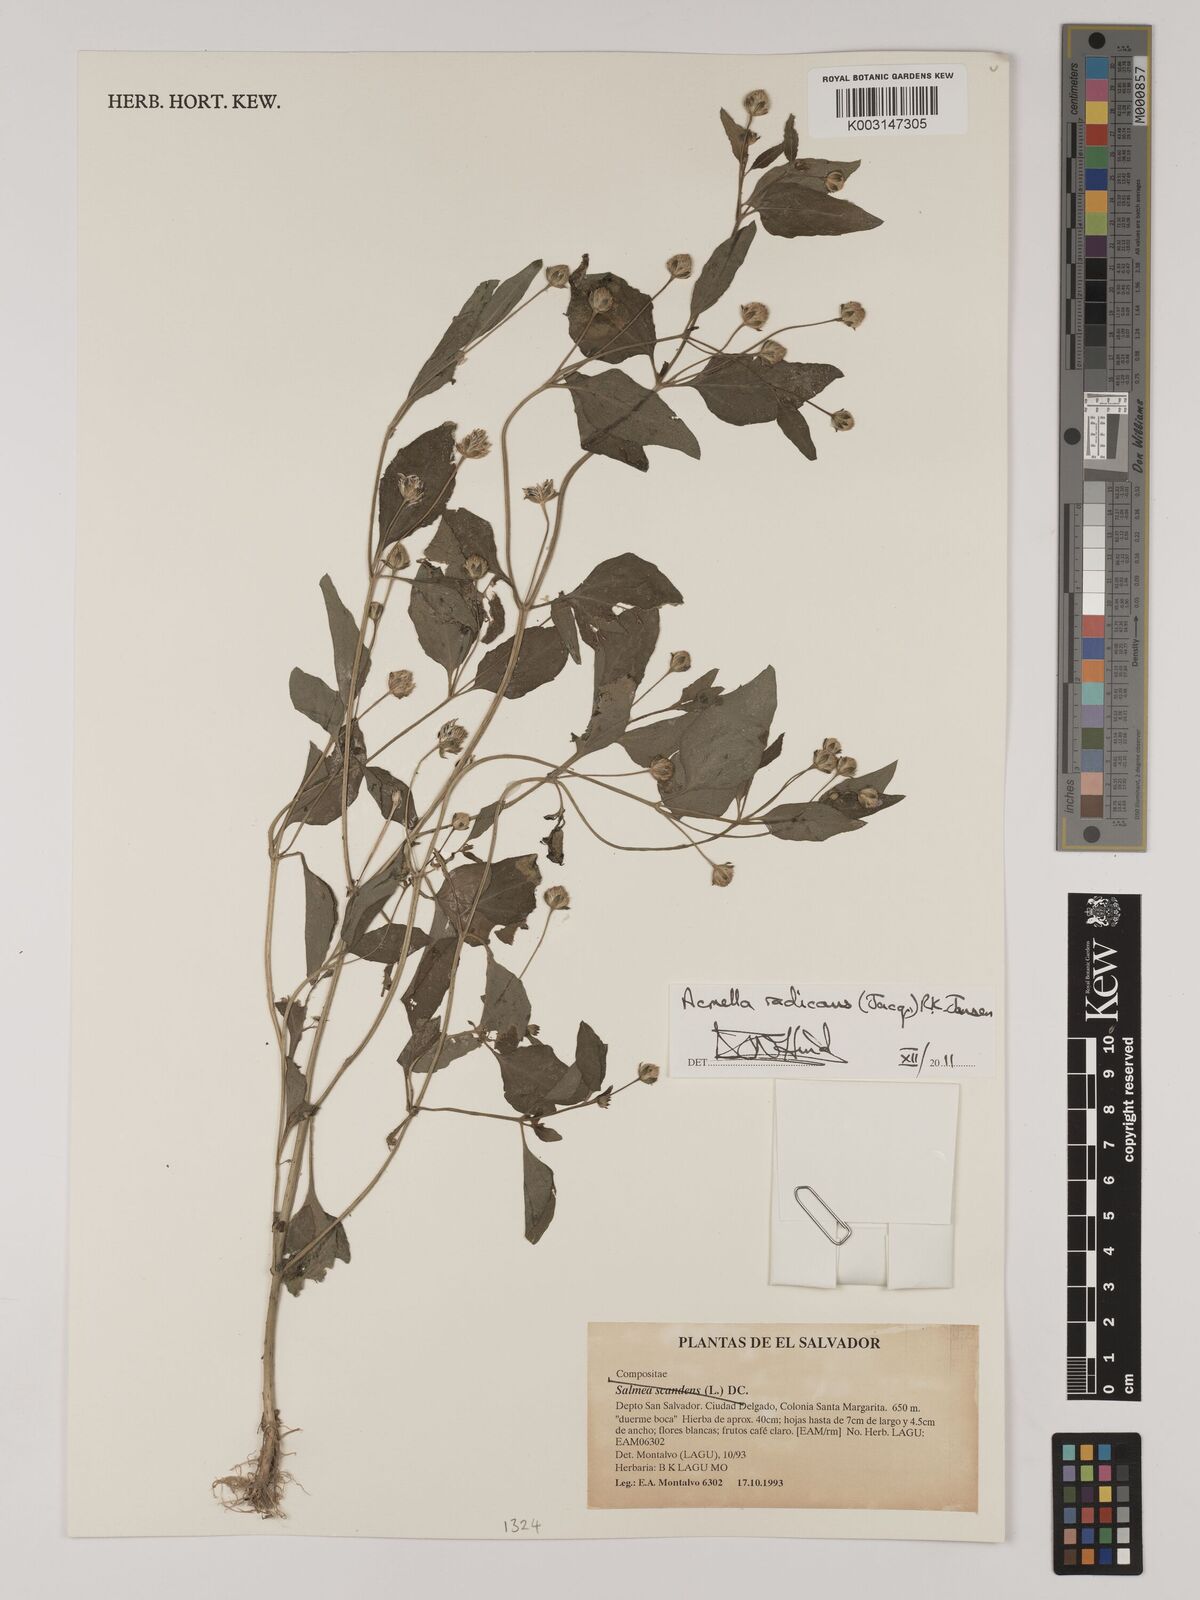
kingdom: Plantae
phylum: Tracheophyta
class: Magnoliopsida
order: Asterales
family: Asteraceae
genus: Acmella
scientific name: Acmella radicans
